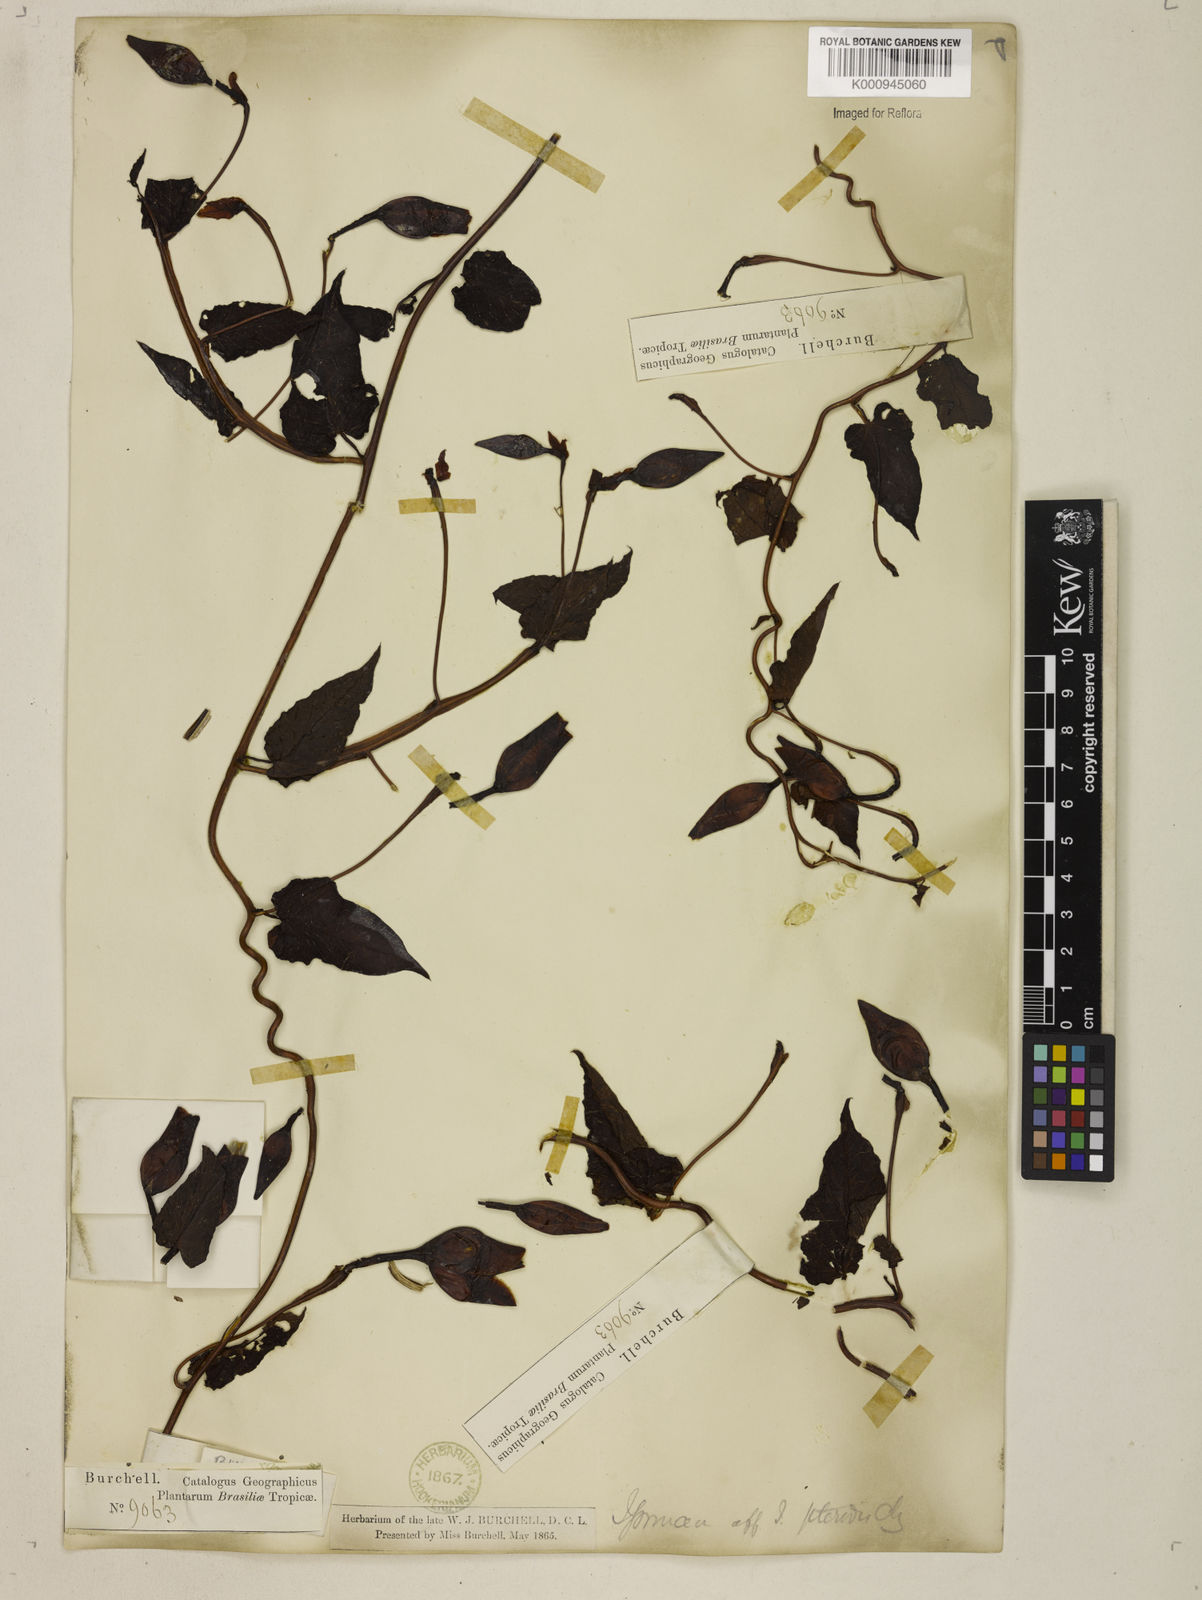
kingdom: Plantae
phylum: Tracheophyta
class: Magnoliopsida
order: Solanales
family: Convolvulaceae
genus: Operculina
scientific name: Operculina hamiltonii
